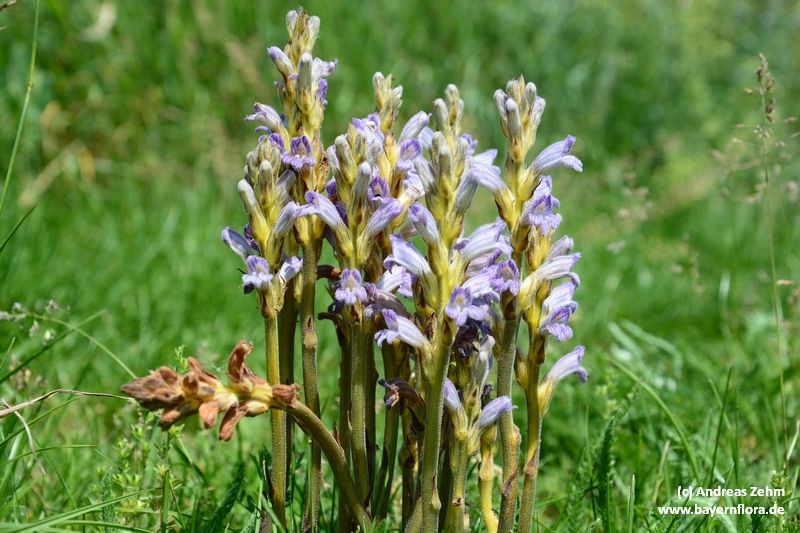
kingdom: Plantae
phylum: Tracheophyta
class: Magnoliopsida
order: Lamiales
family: Orobanchaceae
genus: Phelipanche
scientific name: Phelipanche purpurea
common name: Purple broomrape
